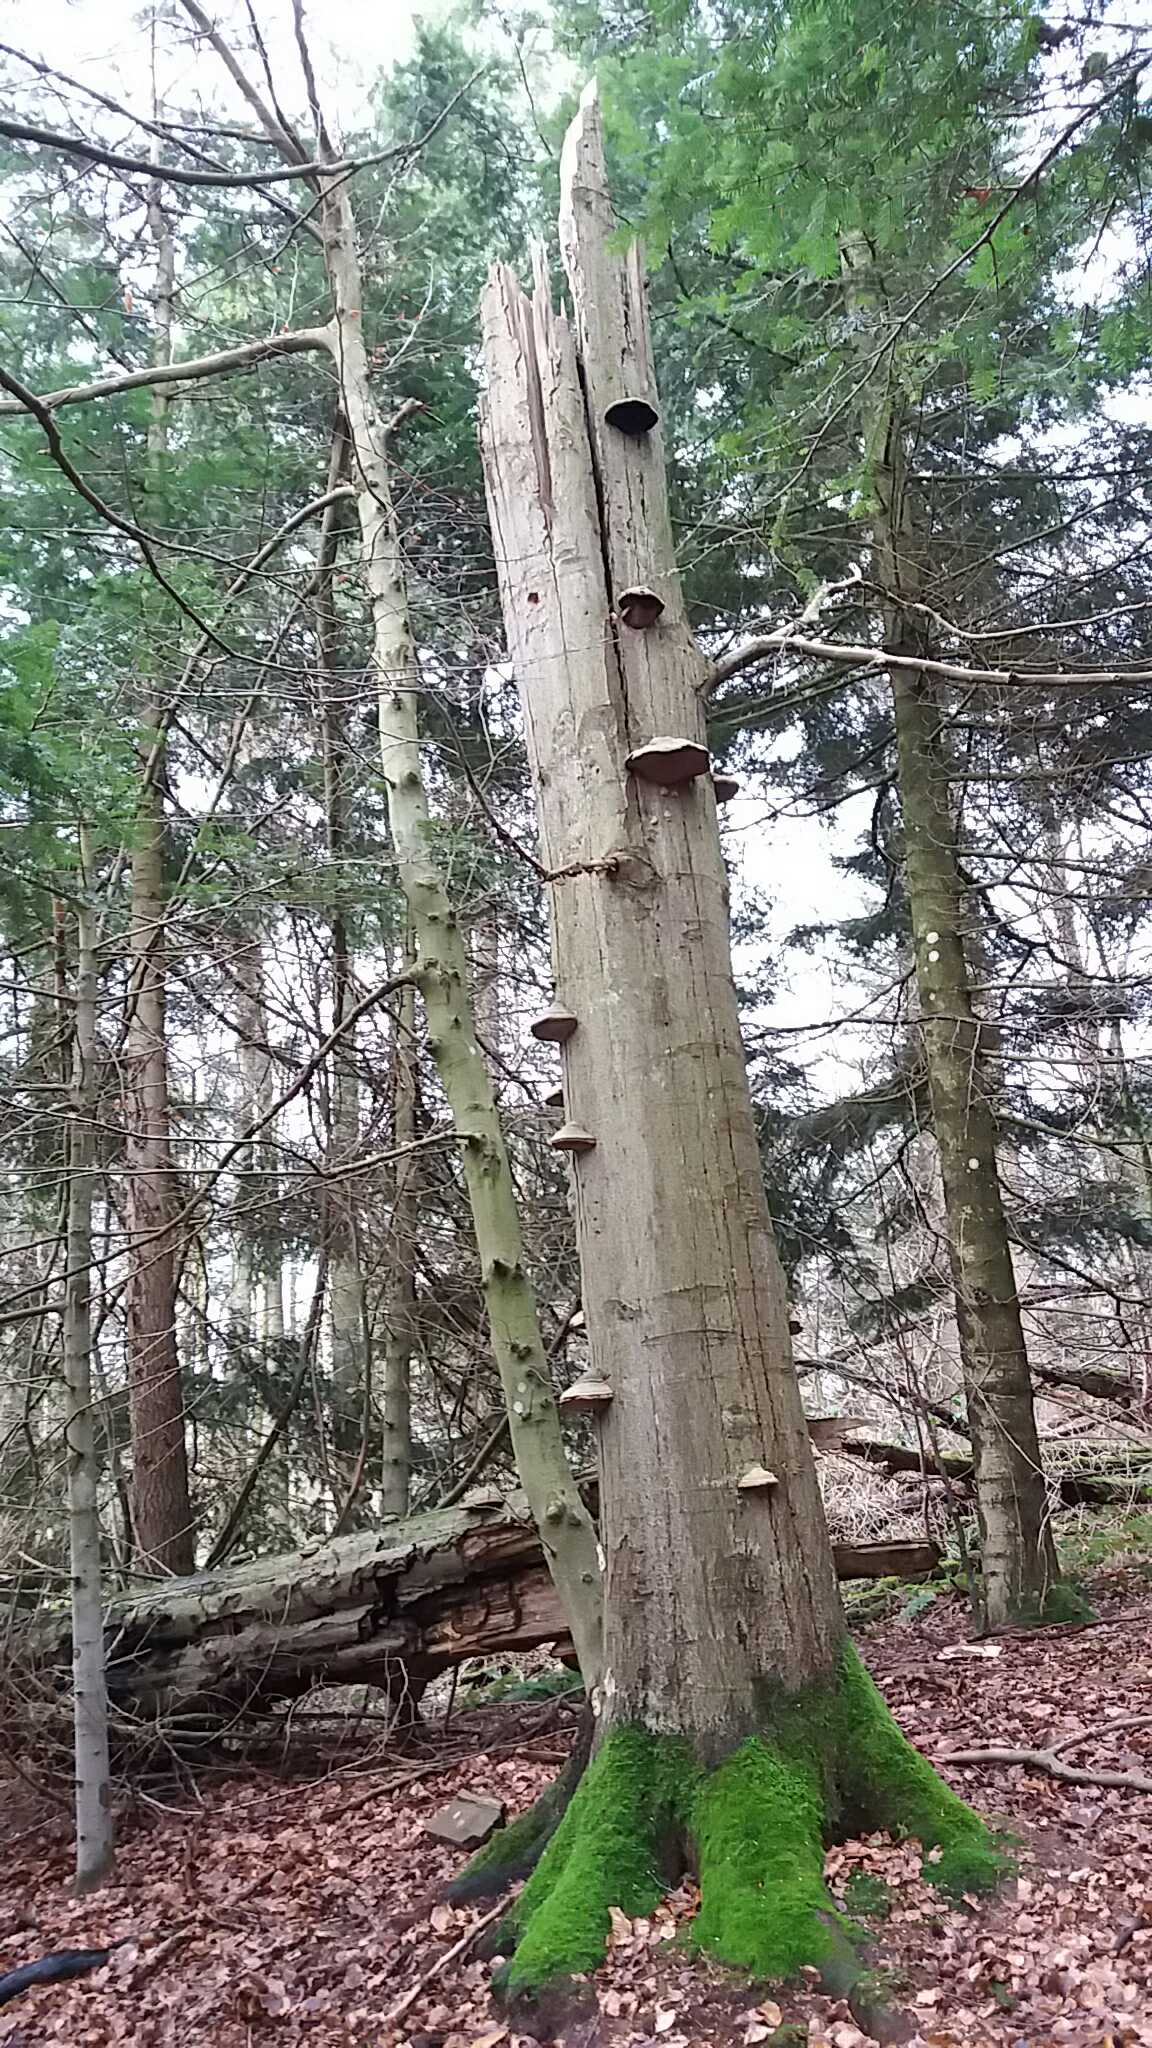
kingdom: Fungi
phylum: Basidiomycota
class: Agaricomycetes
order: Polyporales
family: Polyporaceae
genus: Fomes
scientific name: Fomes fomentarius
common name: tøndersvamp
